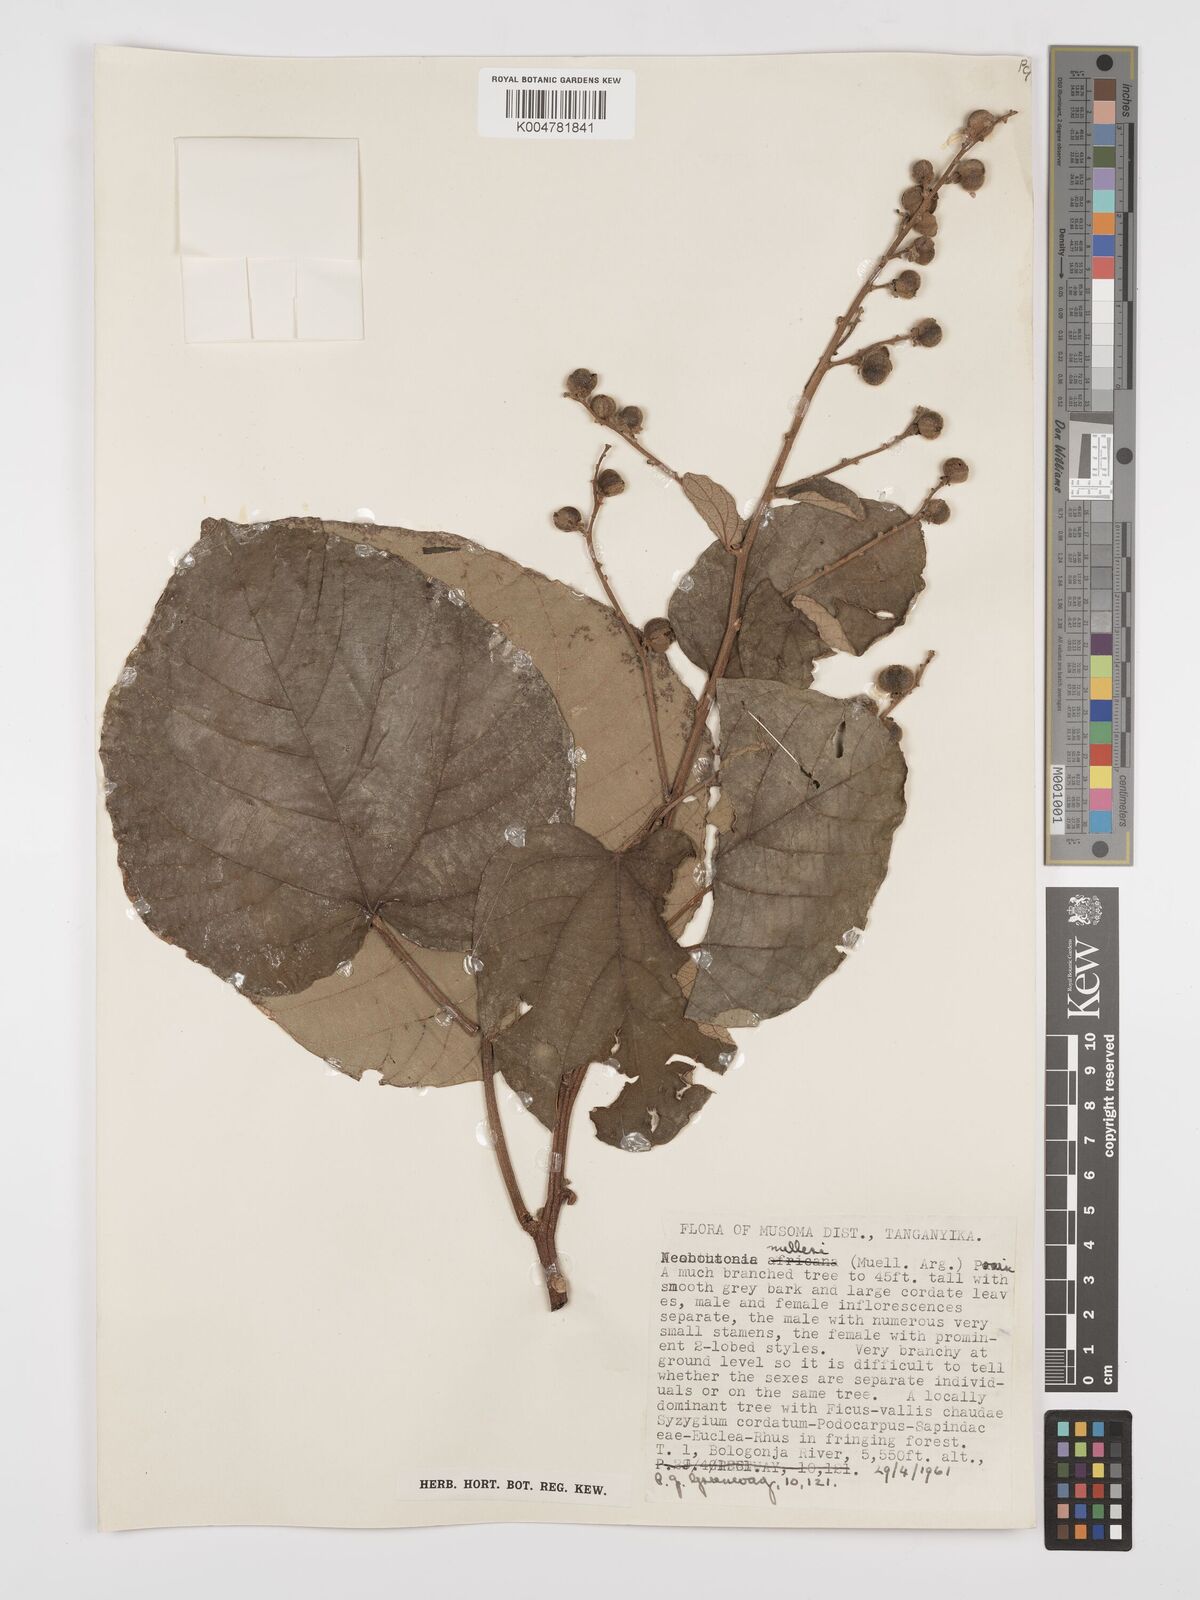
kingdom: Plantae
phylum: Tracheophyta
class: Magnoliopsida
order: Malpighiales
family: Euphorbiaceae
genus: Neoboutonia
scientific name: Neoboutonia melleri
